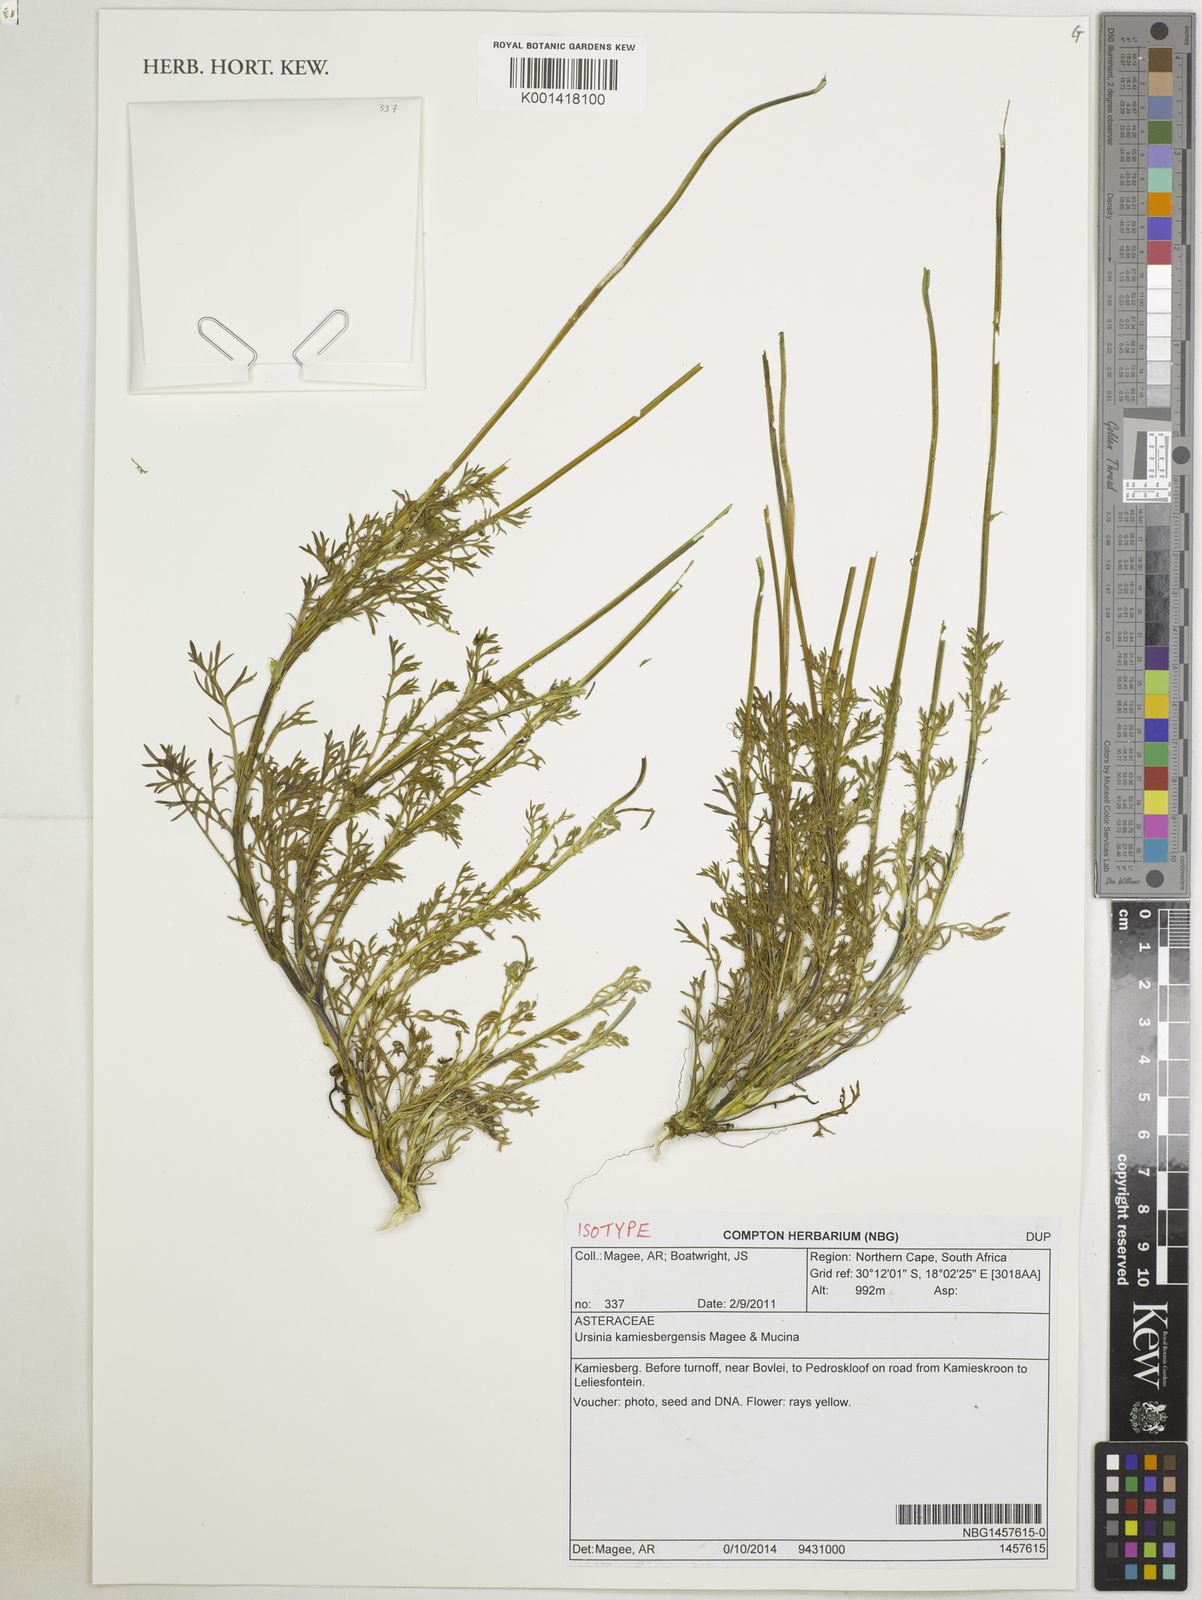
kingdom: Plantae
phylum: Tracheophyta
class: Magnoliopsida
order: Asterales
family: Asteraceae
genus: Ursinia
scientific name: Ursinia kamiesbergensis
